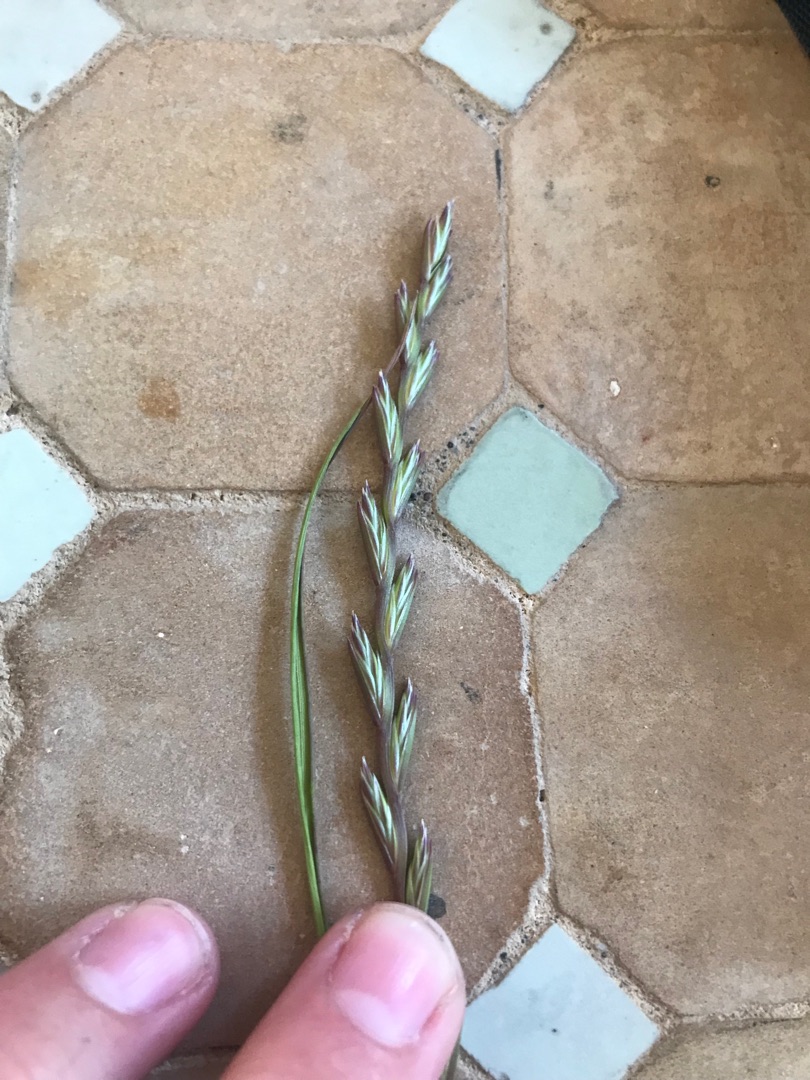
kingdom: Plantae
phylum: Tracheophyta
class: Liliopsida
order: Poales
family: Poaceae
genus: Lolium
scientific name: Lolium perenne
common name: Almindelig rajgræs
